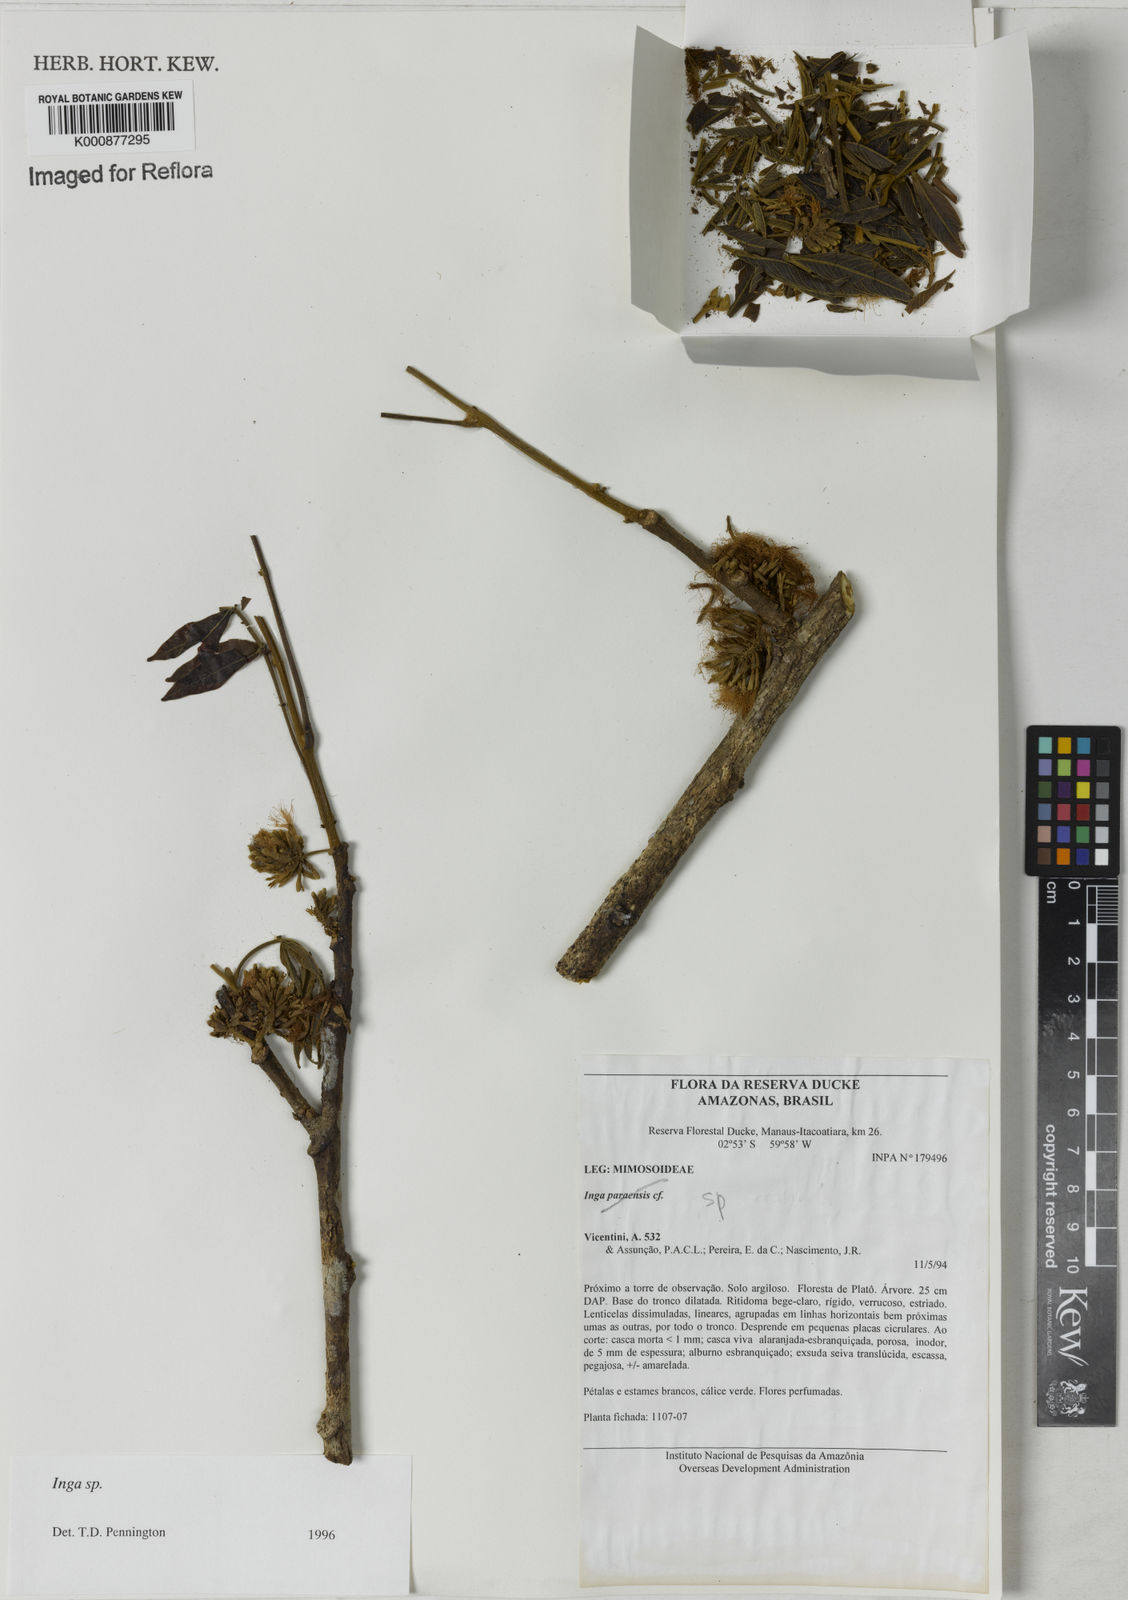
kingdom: Plantae
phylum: Tracheophyta
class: Magnoliopsida
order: Fabales
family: Fabaceae
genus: Inga
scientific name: Inga
